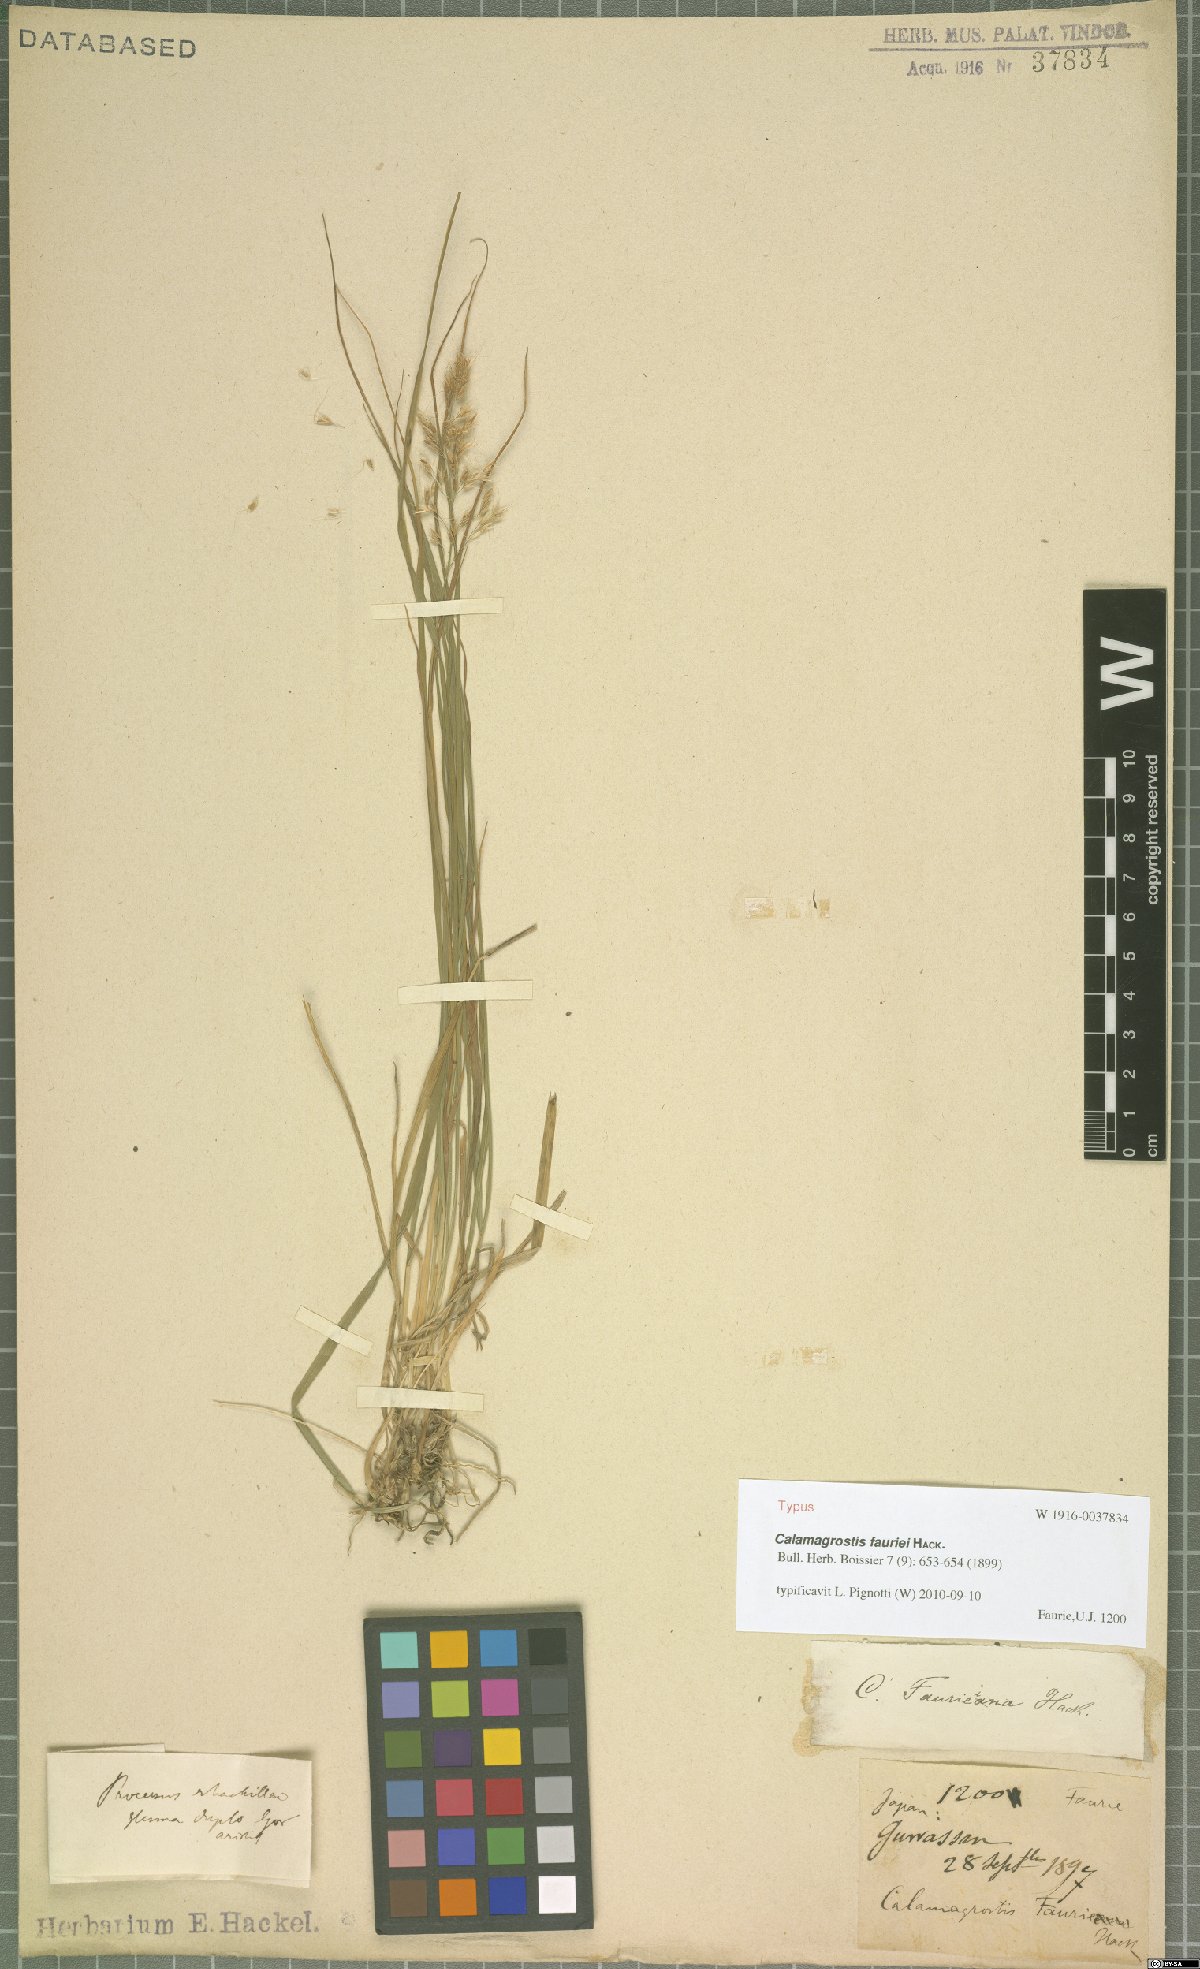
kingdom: Plantae
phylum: Tracheophyta
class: Liliopsida
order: Poales
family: Poaceae
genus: Calamagrostis
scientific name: Calamagrostis fauriei
